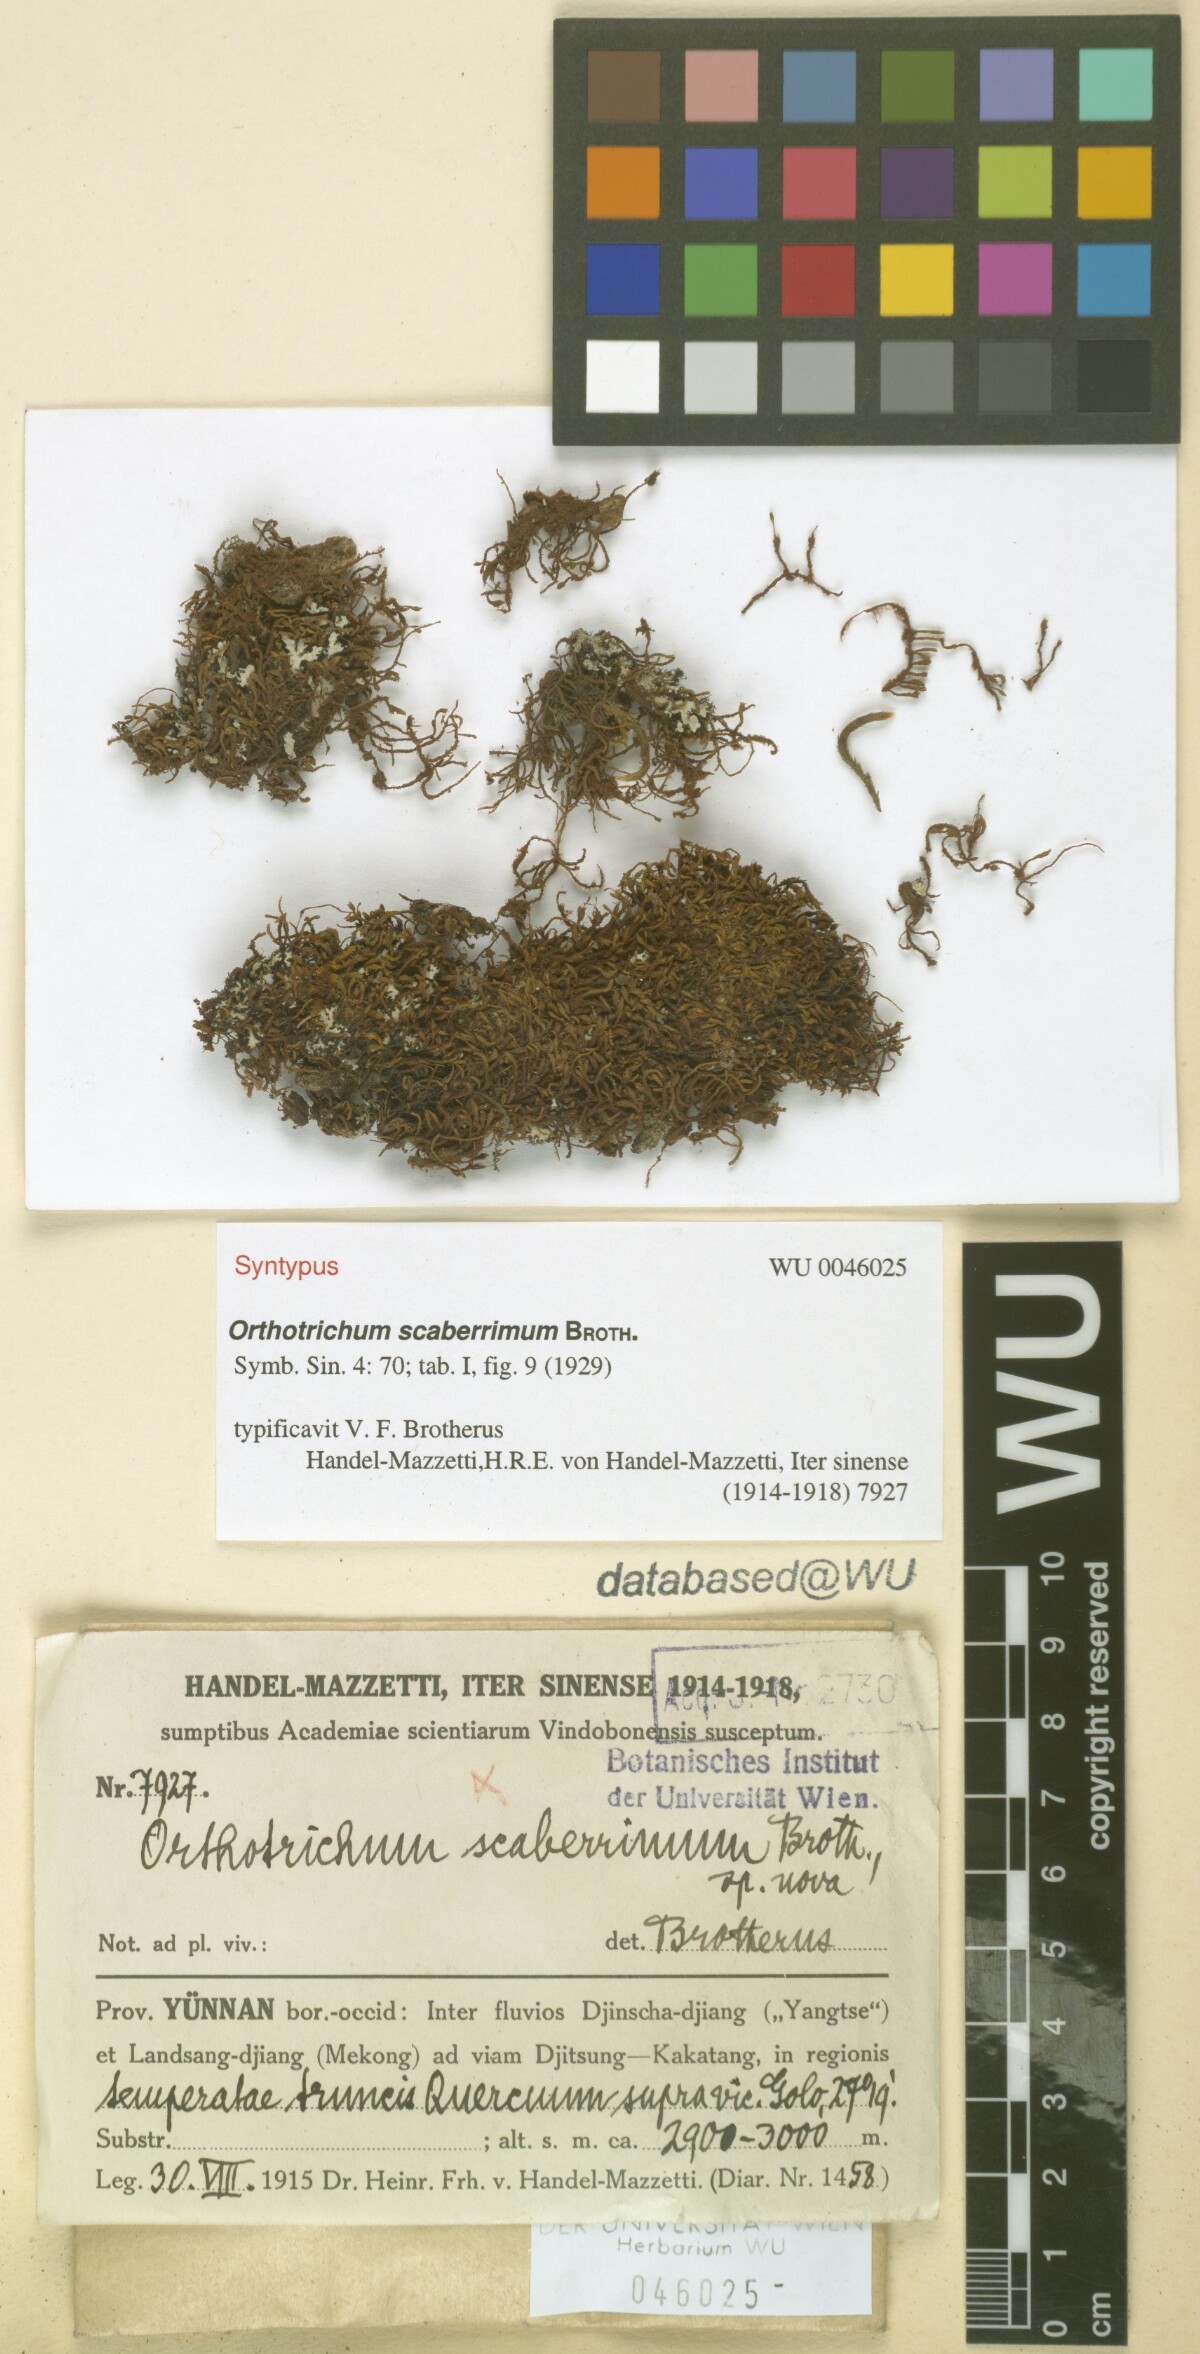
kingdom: Plantae
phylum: Bryophyta
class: Bryopsida
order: Orthotrichales
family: Orthotrichaceae
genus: Florschuetziella
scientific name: Florschuetziella scaberrima
